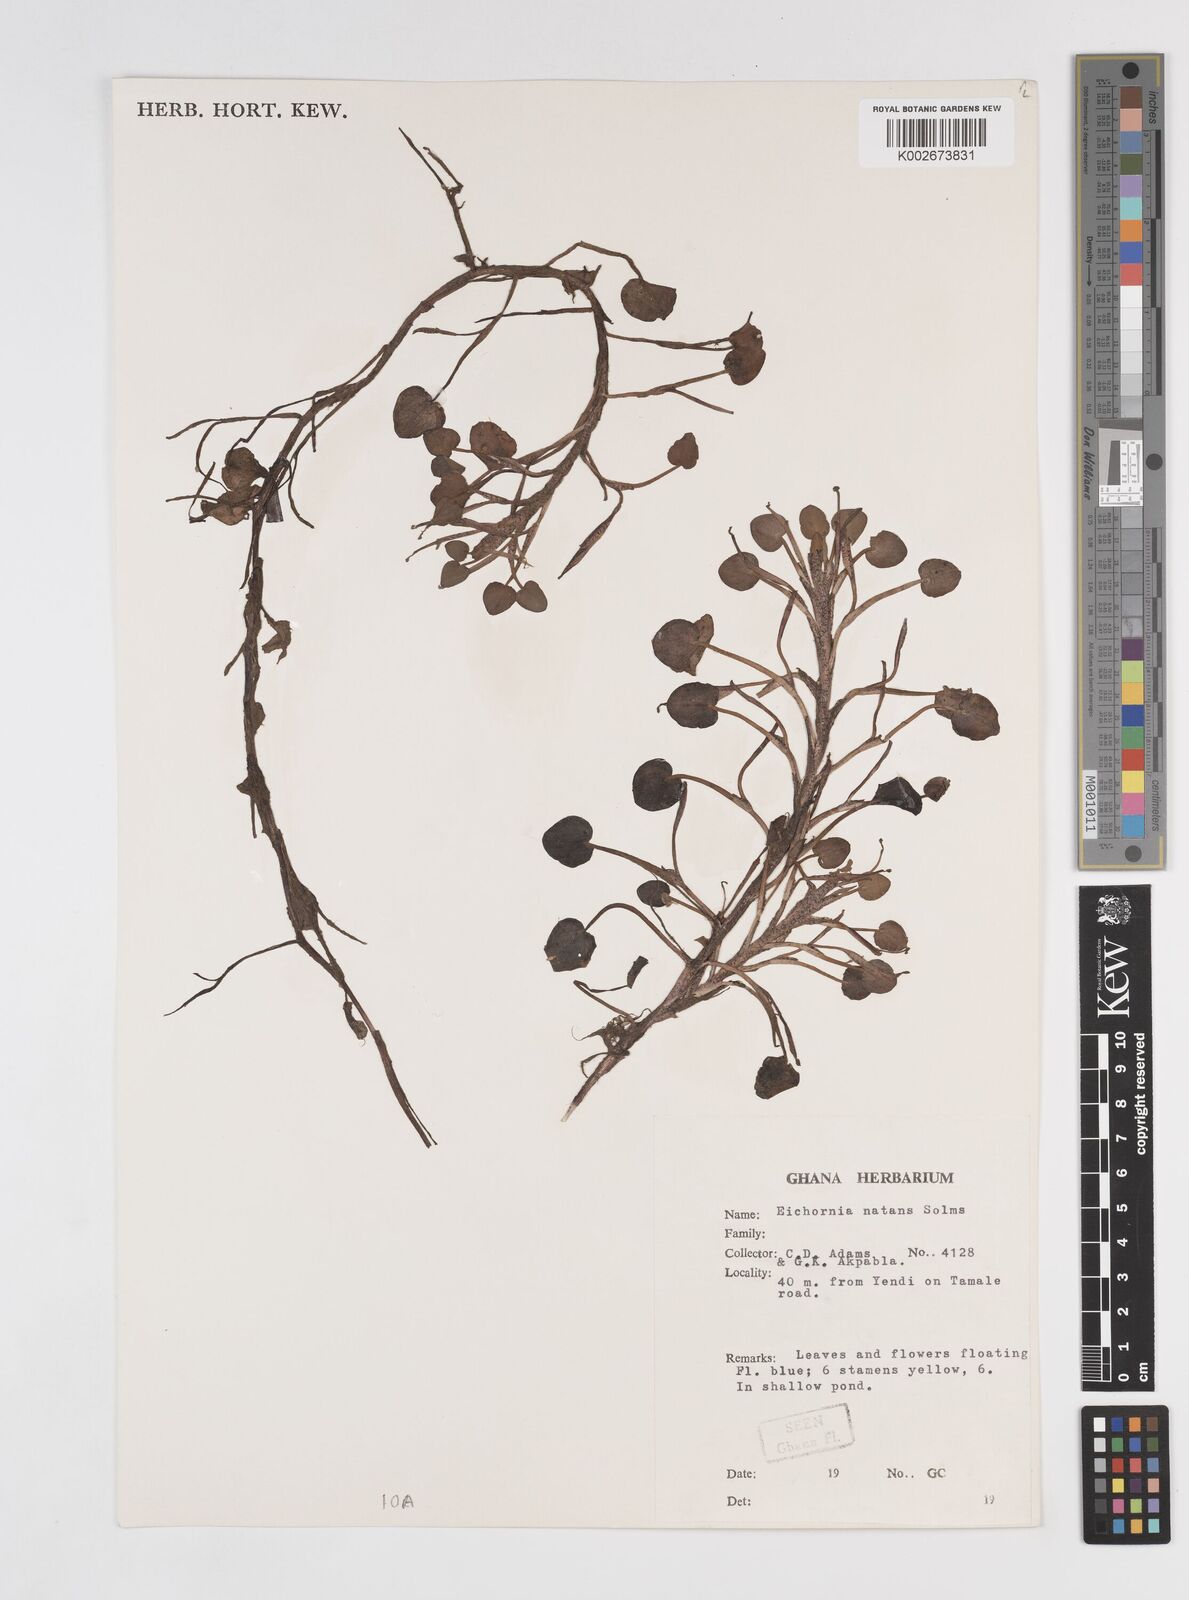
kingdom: Plantae
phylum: Tracheophyta
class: Liliopsida
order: Commelinales
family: Pontederiaceae
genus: Pontederia
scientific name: Pontederia diversifolia
